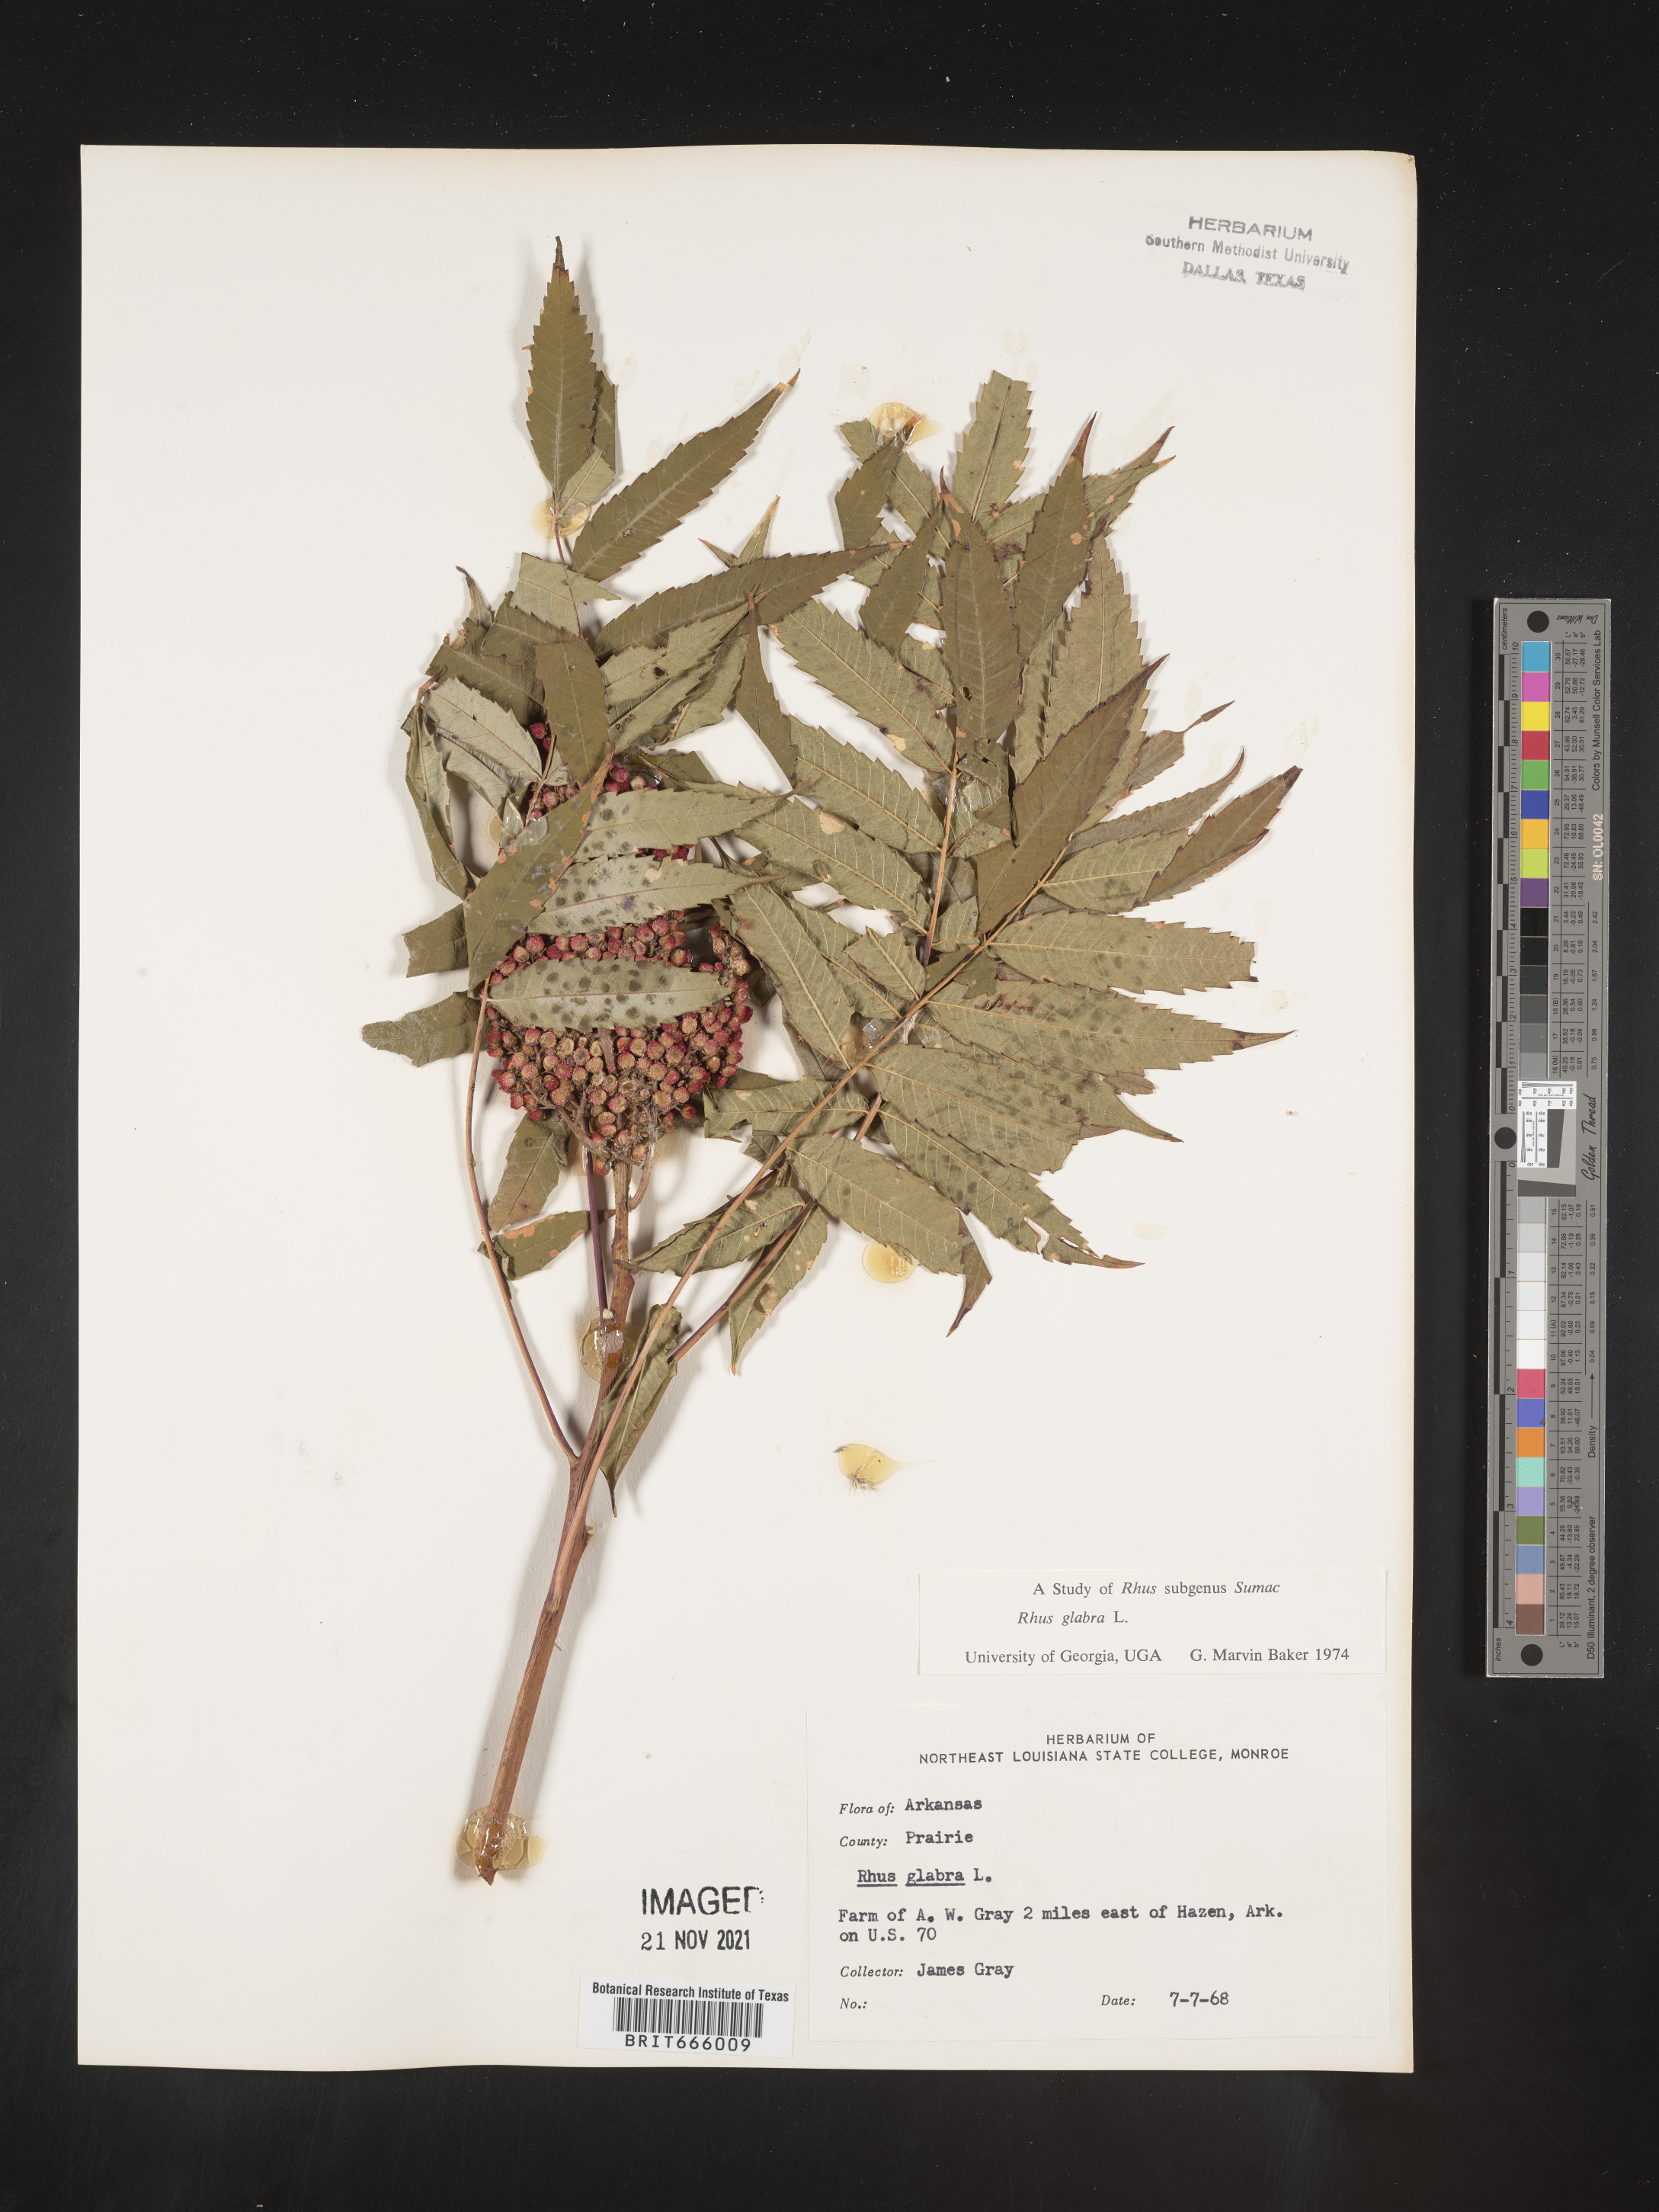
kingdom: Plantae
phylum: Tracheophyta
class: Magnoliopsida
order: Sapindales
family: Anacardiaceae
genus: Rhus
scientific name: Rhus glabra
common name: Scarlet sumac
